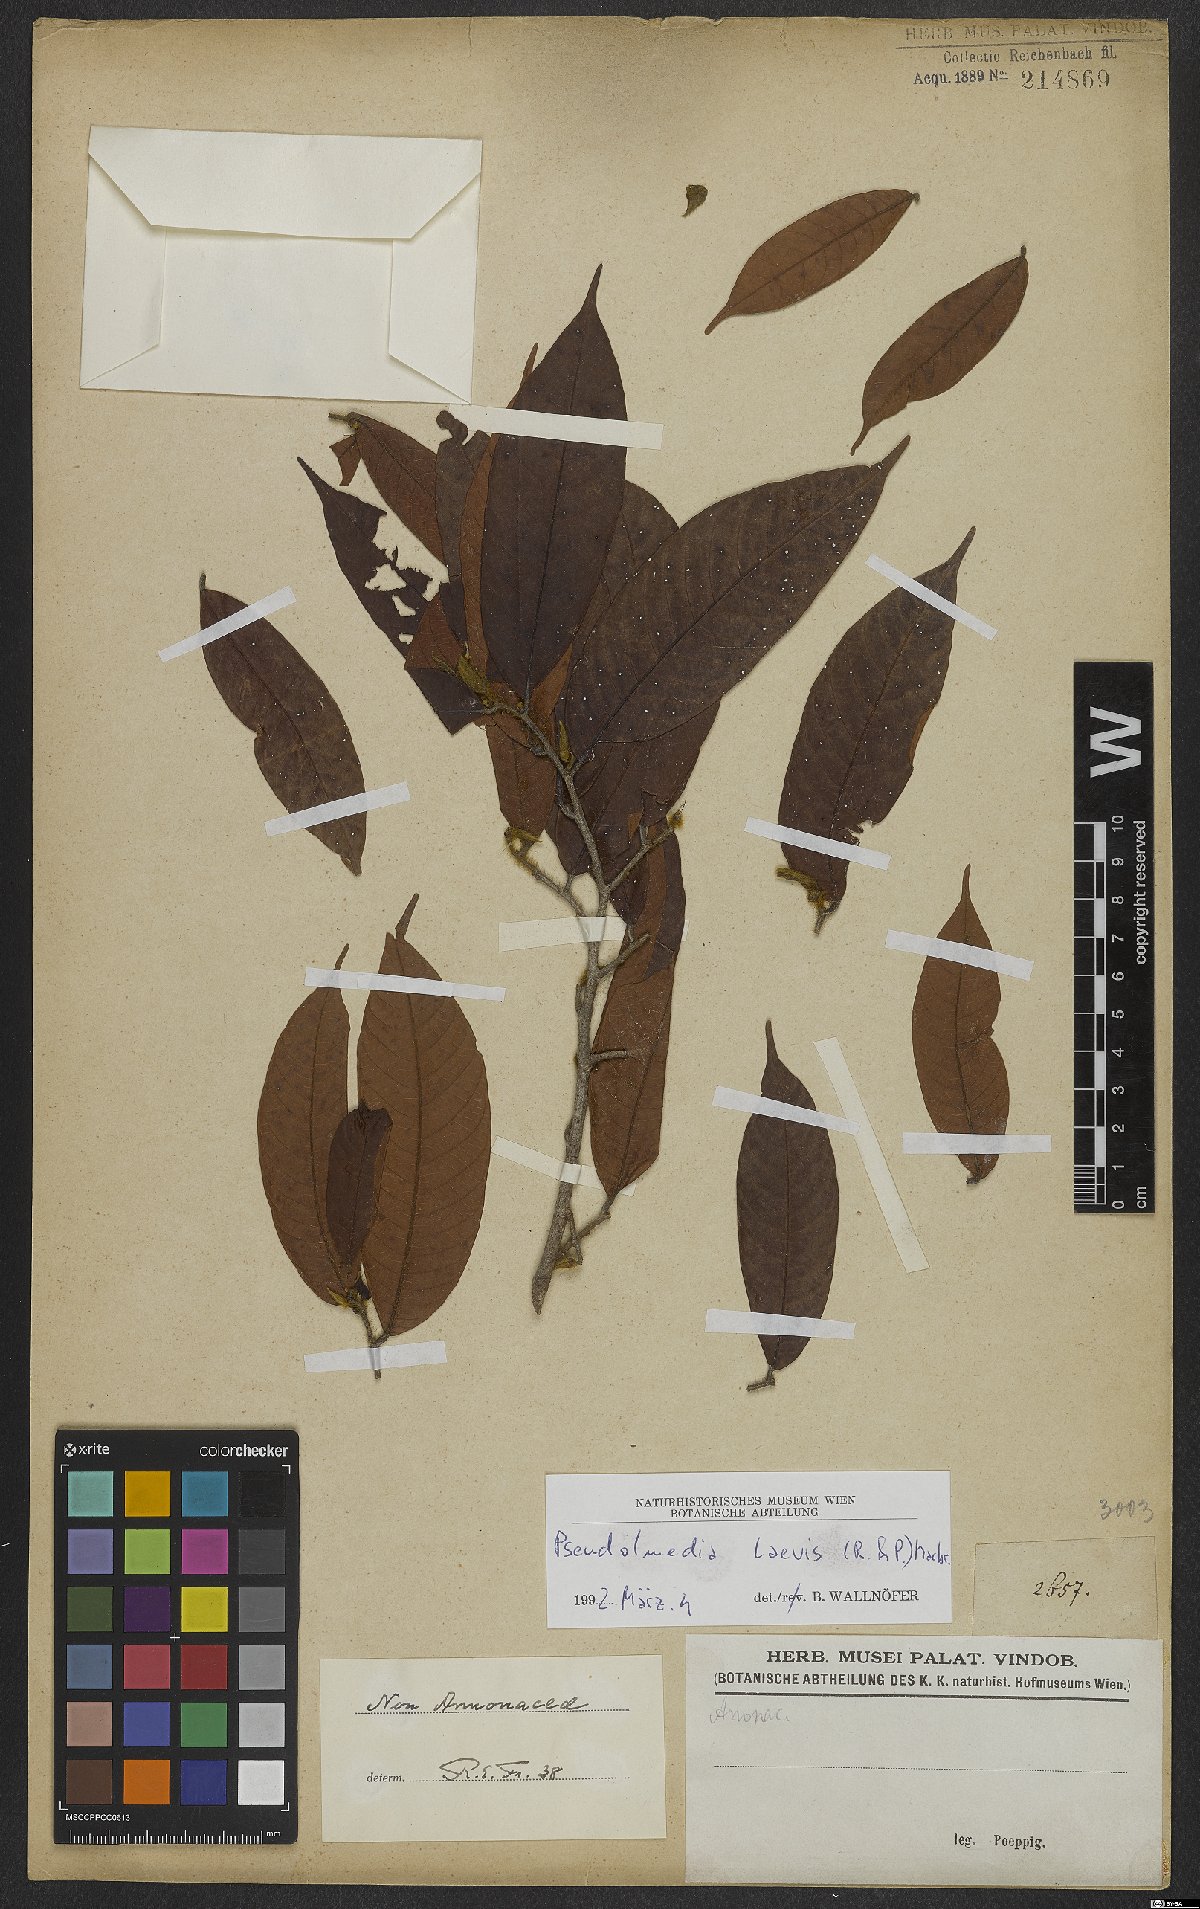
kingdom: Plantae
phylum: Tracheophyta
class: Magnoliopsida
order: Rosales
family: Moraceae
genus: Pseudolmedia
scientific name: Pseudolmedia laevis
